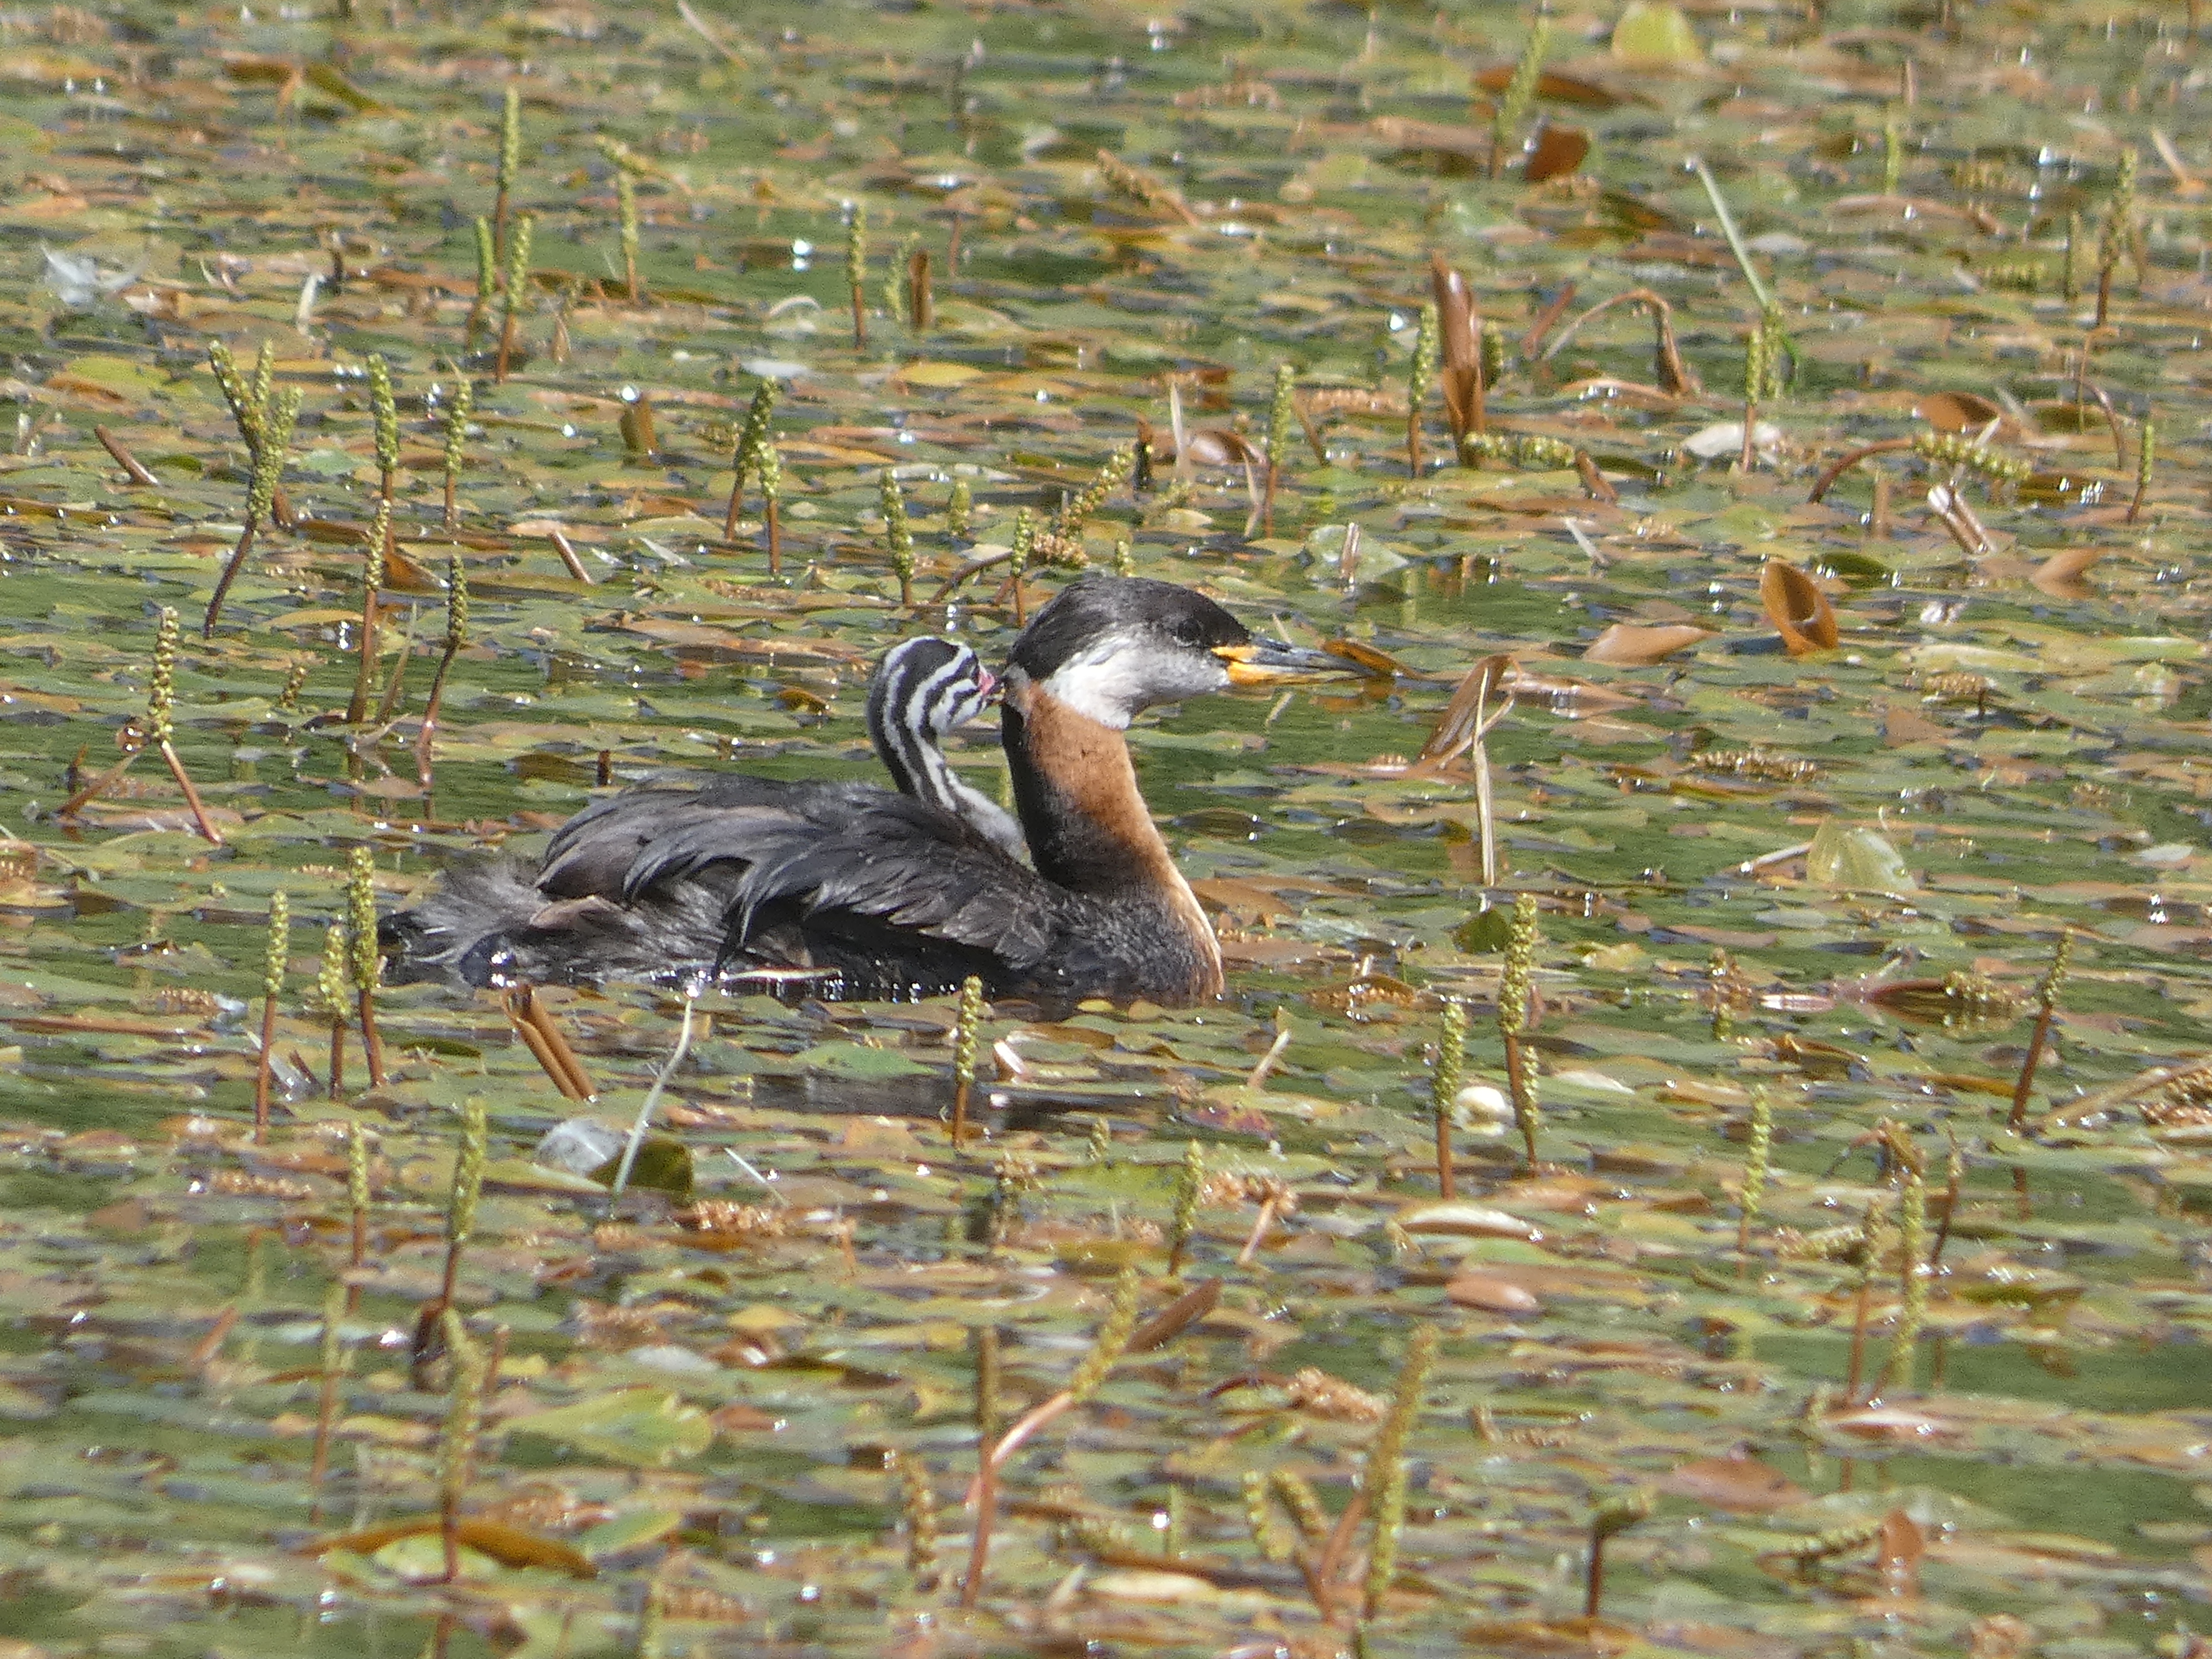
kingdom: Animalia
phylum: Chordata
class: Aves
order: Podicipediformes
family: Podicipedidae
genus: Podiceps
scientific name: Podiceps grisegena
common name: Gråstrubet lappedykker
